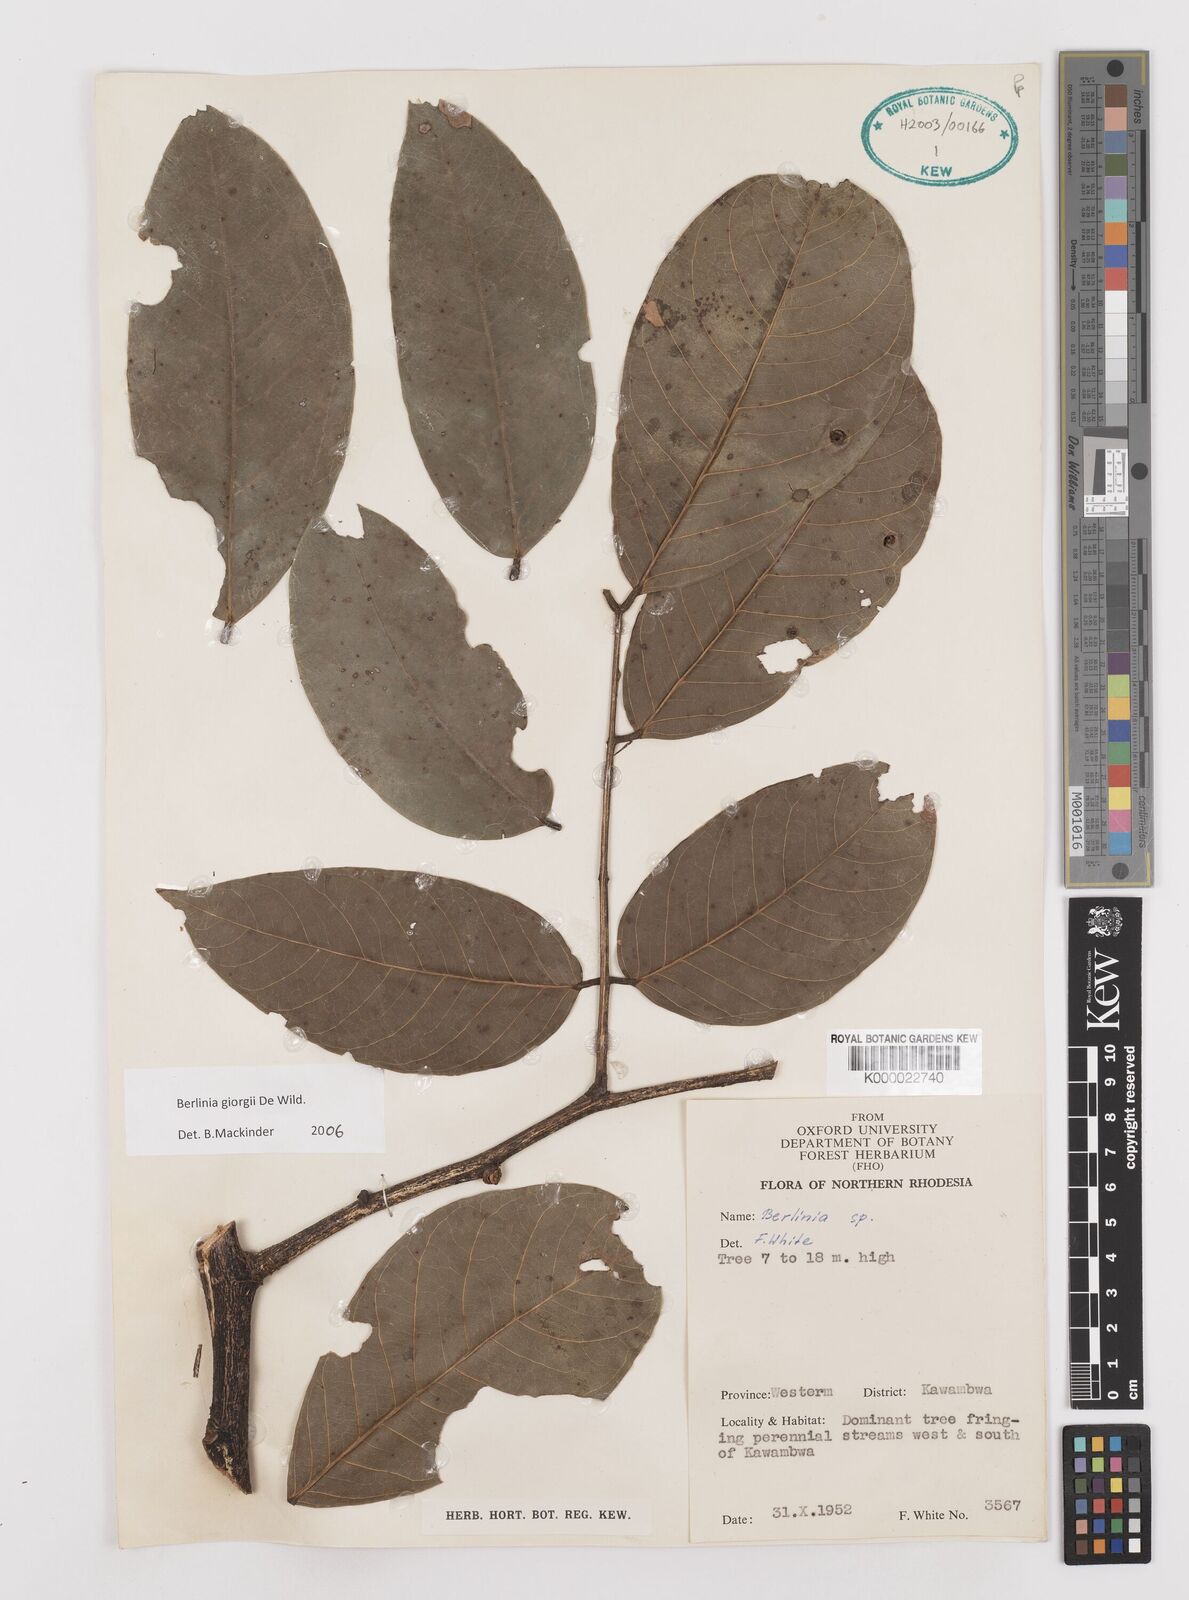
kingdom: Plantae
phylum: Tracheophyta
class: Magnoliopsida
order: Fabales
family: Fabaceae
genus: Berlinia
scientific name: Berlinia giorgii
